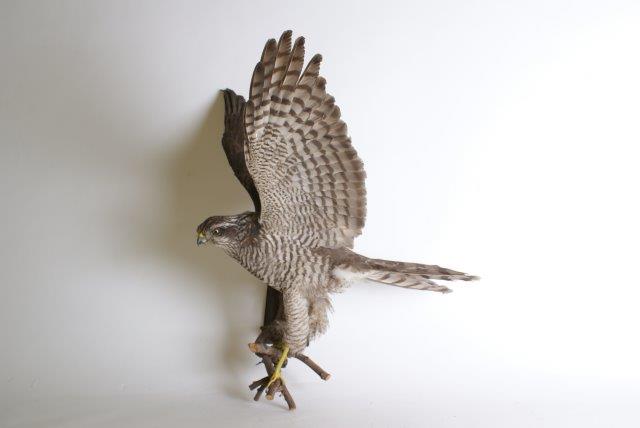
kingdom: Animalia
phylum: Chordata
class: Aves
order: Accipitriformes
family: Accipitridae
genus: Accipiter
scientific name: Accipiter nisus
